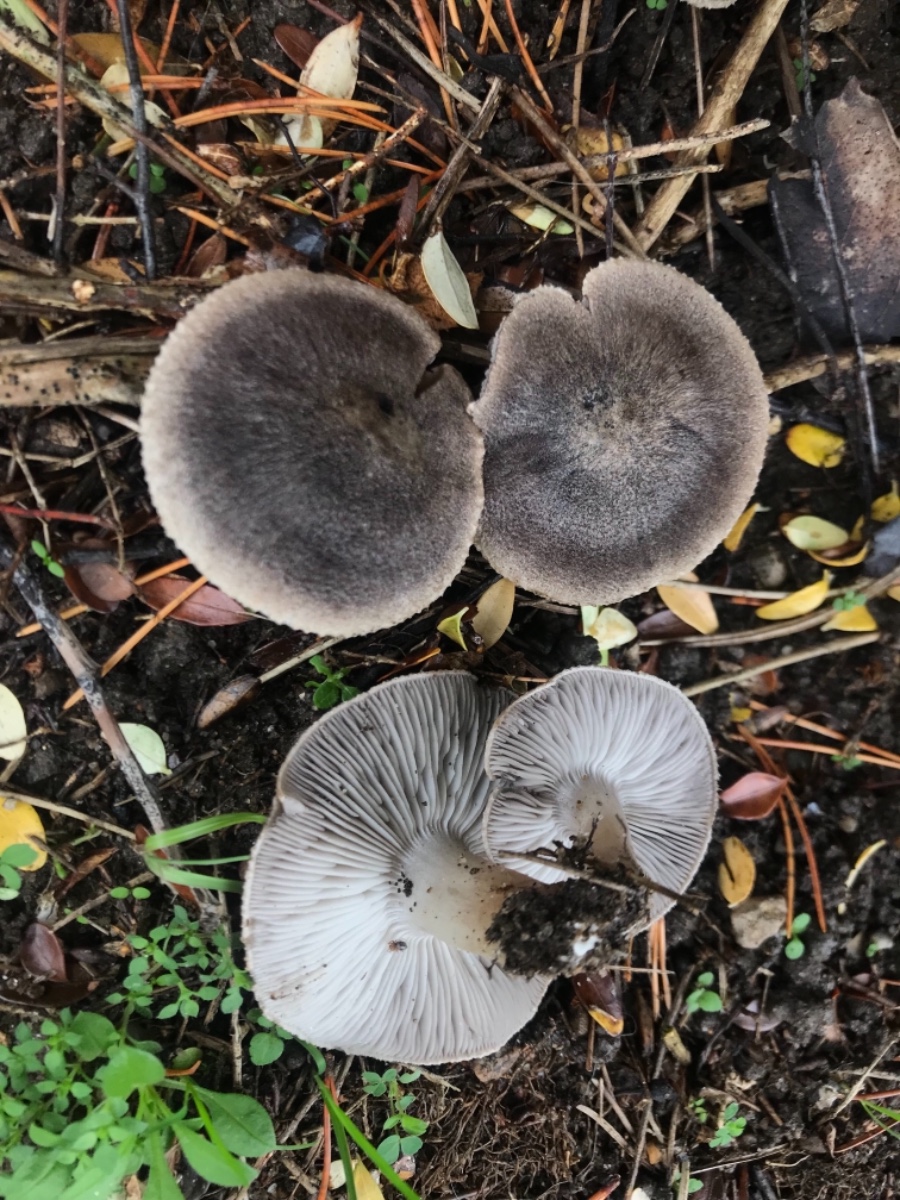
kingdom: Fungi
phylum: Basidiomycota
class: Agaricomycetes
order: Agaricales
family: Tricholomataceae
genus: Tricholoma
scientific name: Tricholoma terreum
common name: jordfarvet ridderhat
